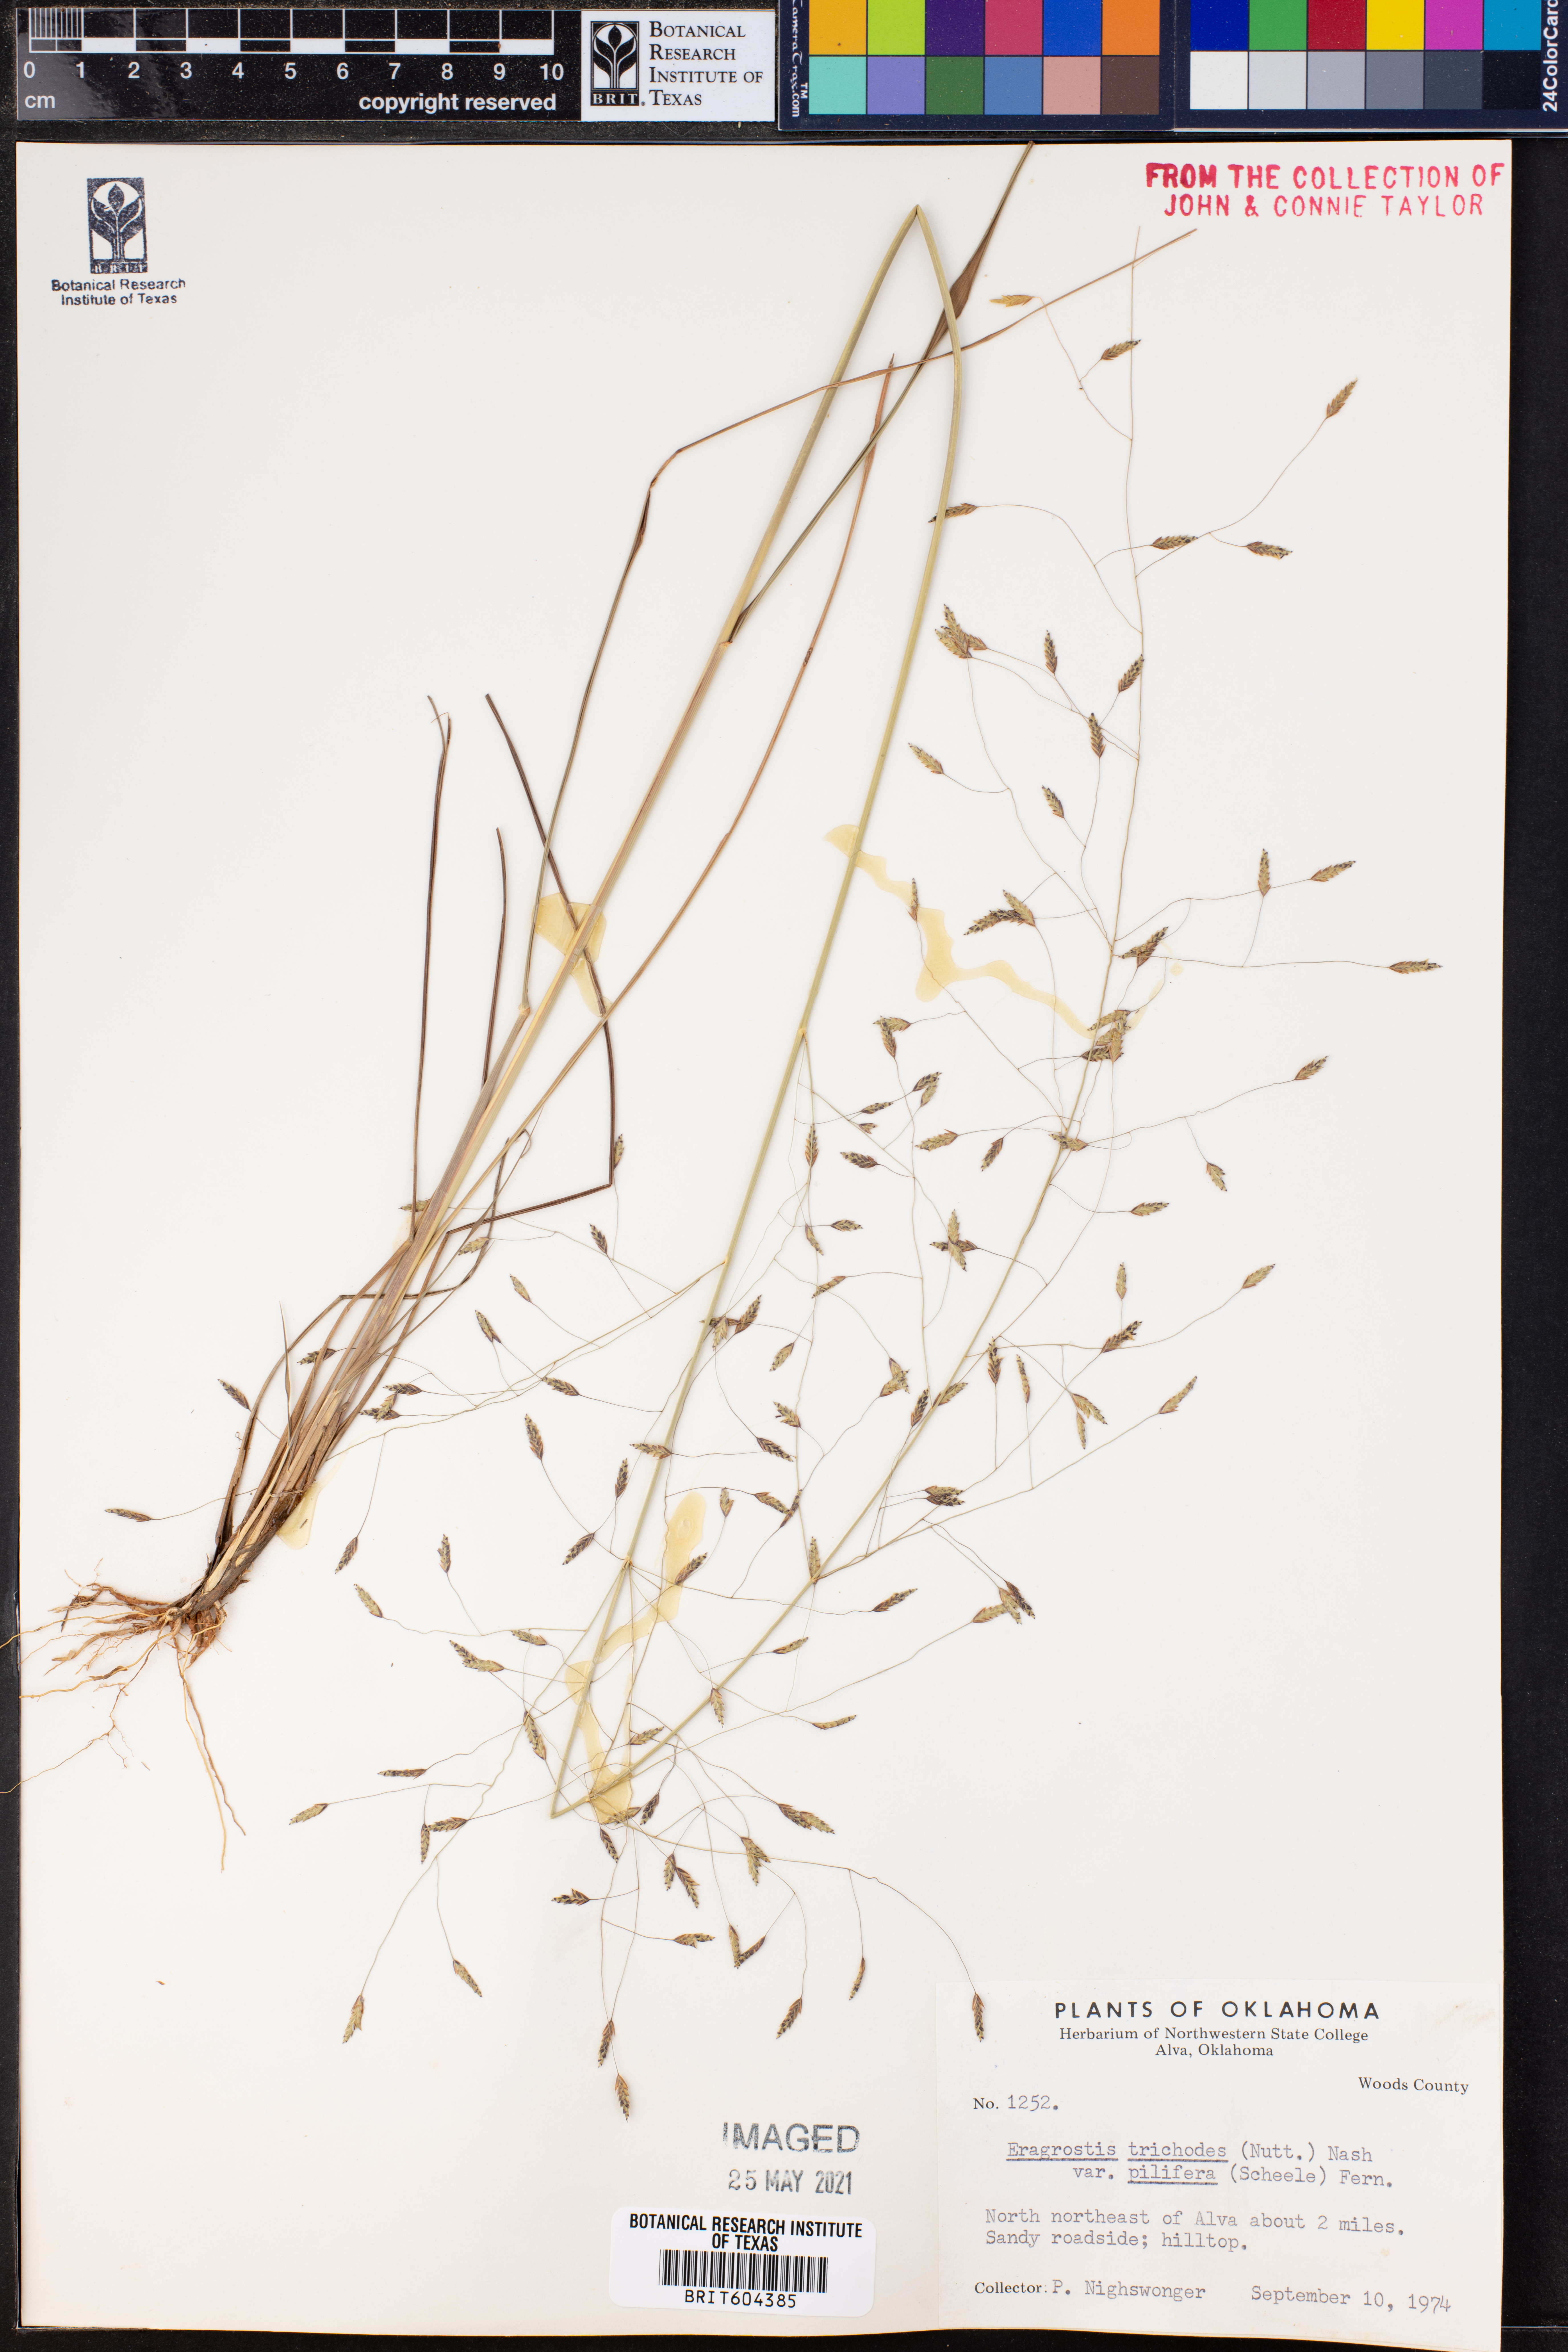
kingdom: Plantae
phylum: Tracheophyta
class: Liliopsida
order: Poales
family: Poaceae
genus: Eragrostis
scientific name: Eragrostis trichodes
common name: Sand love grass
